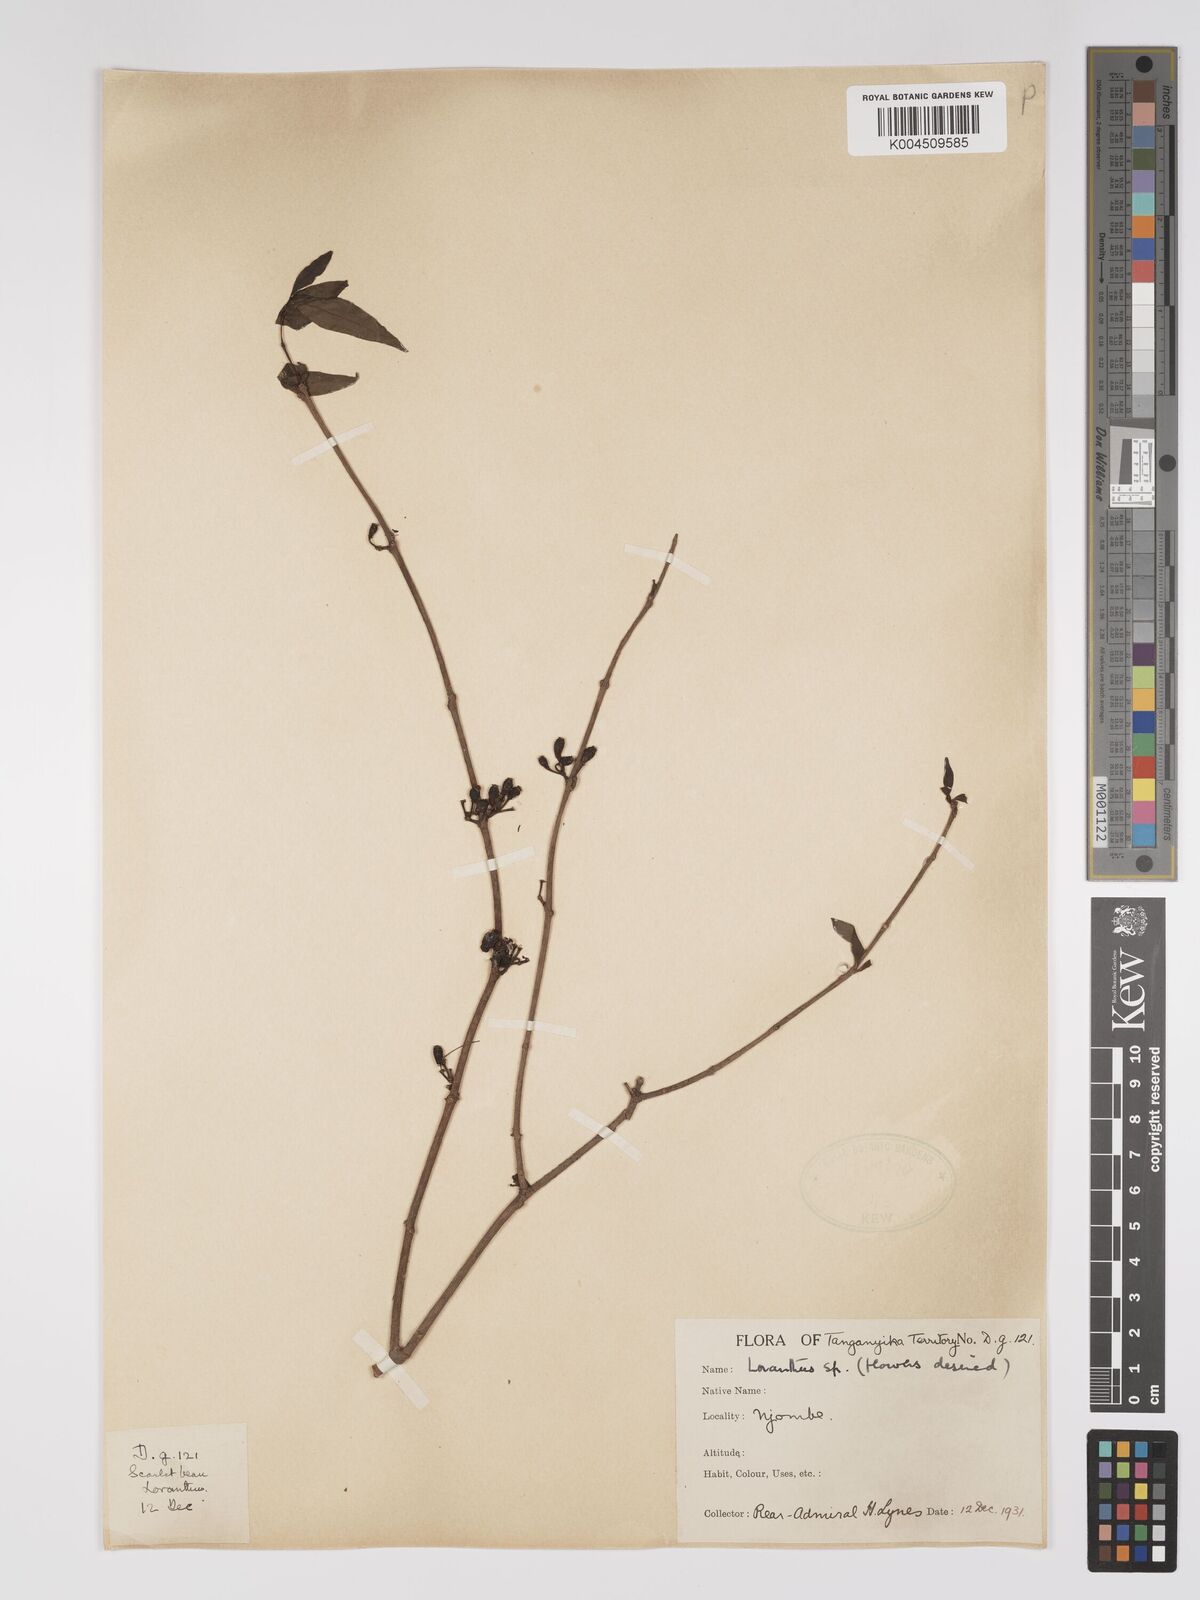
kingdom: Plantae
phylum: Tracheophyta
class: Magnoliopsida
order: Santalales
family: Loranthaceae
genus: Englerina
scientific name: Englerina inaequilatera
